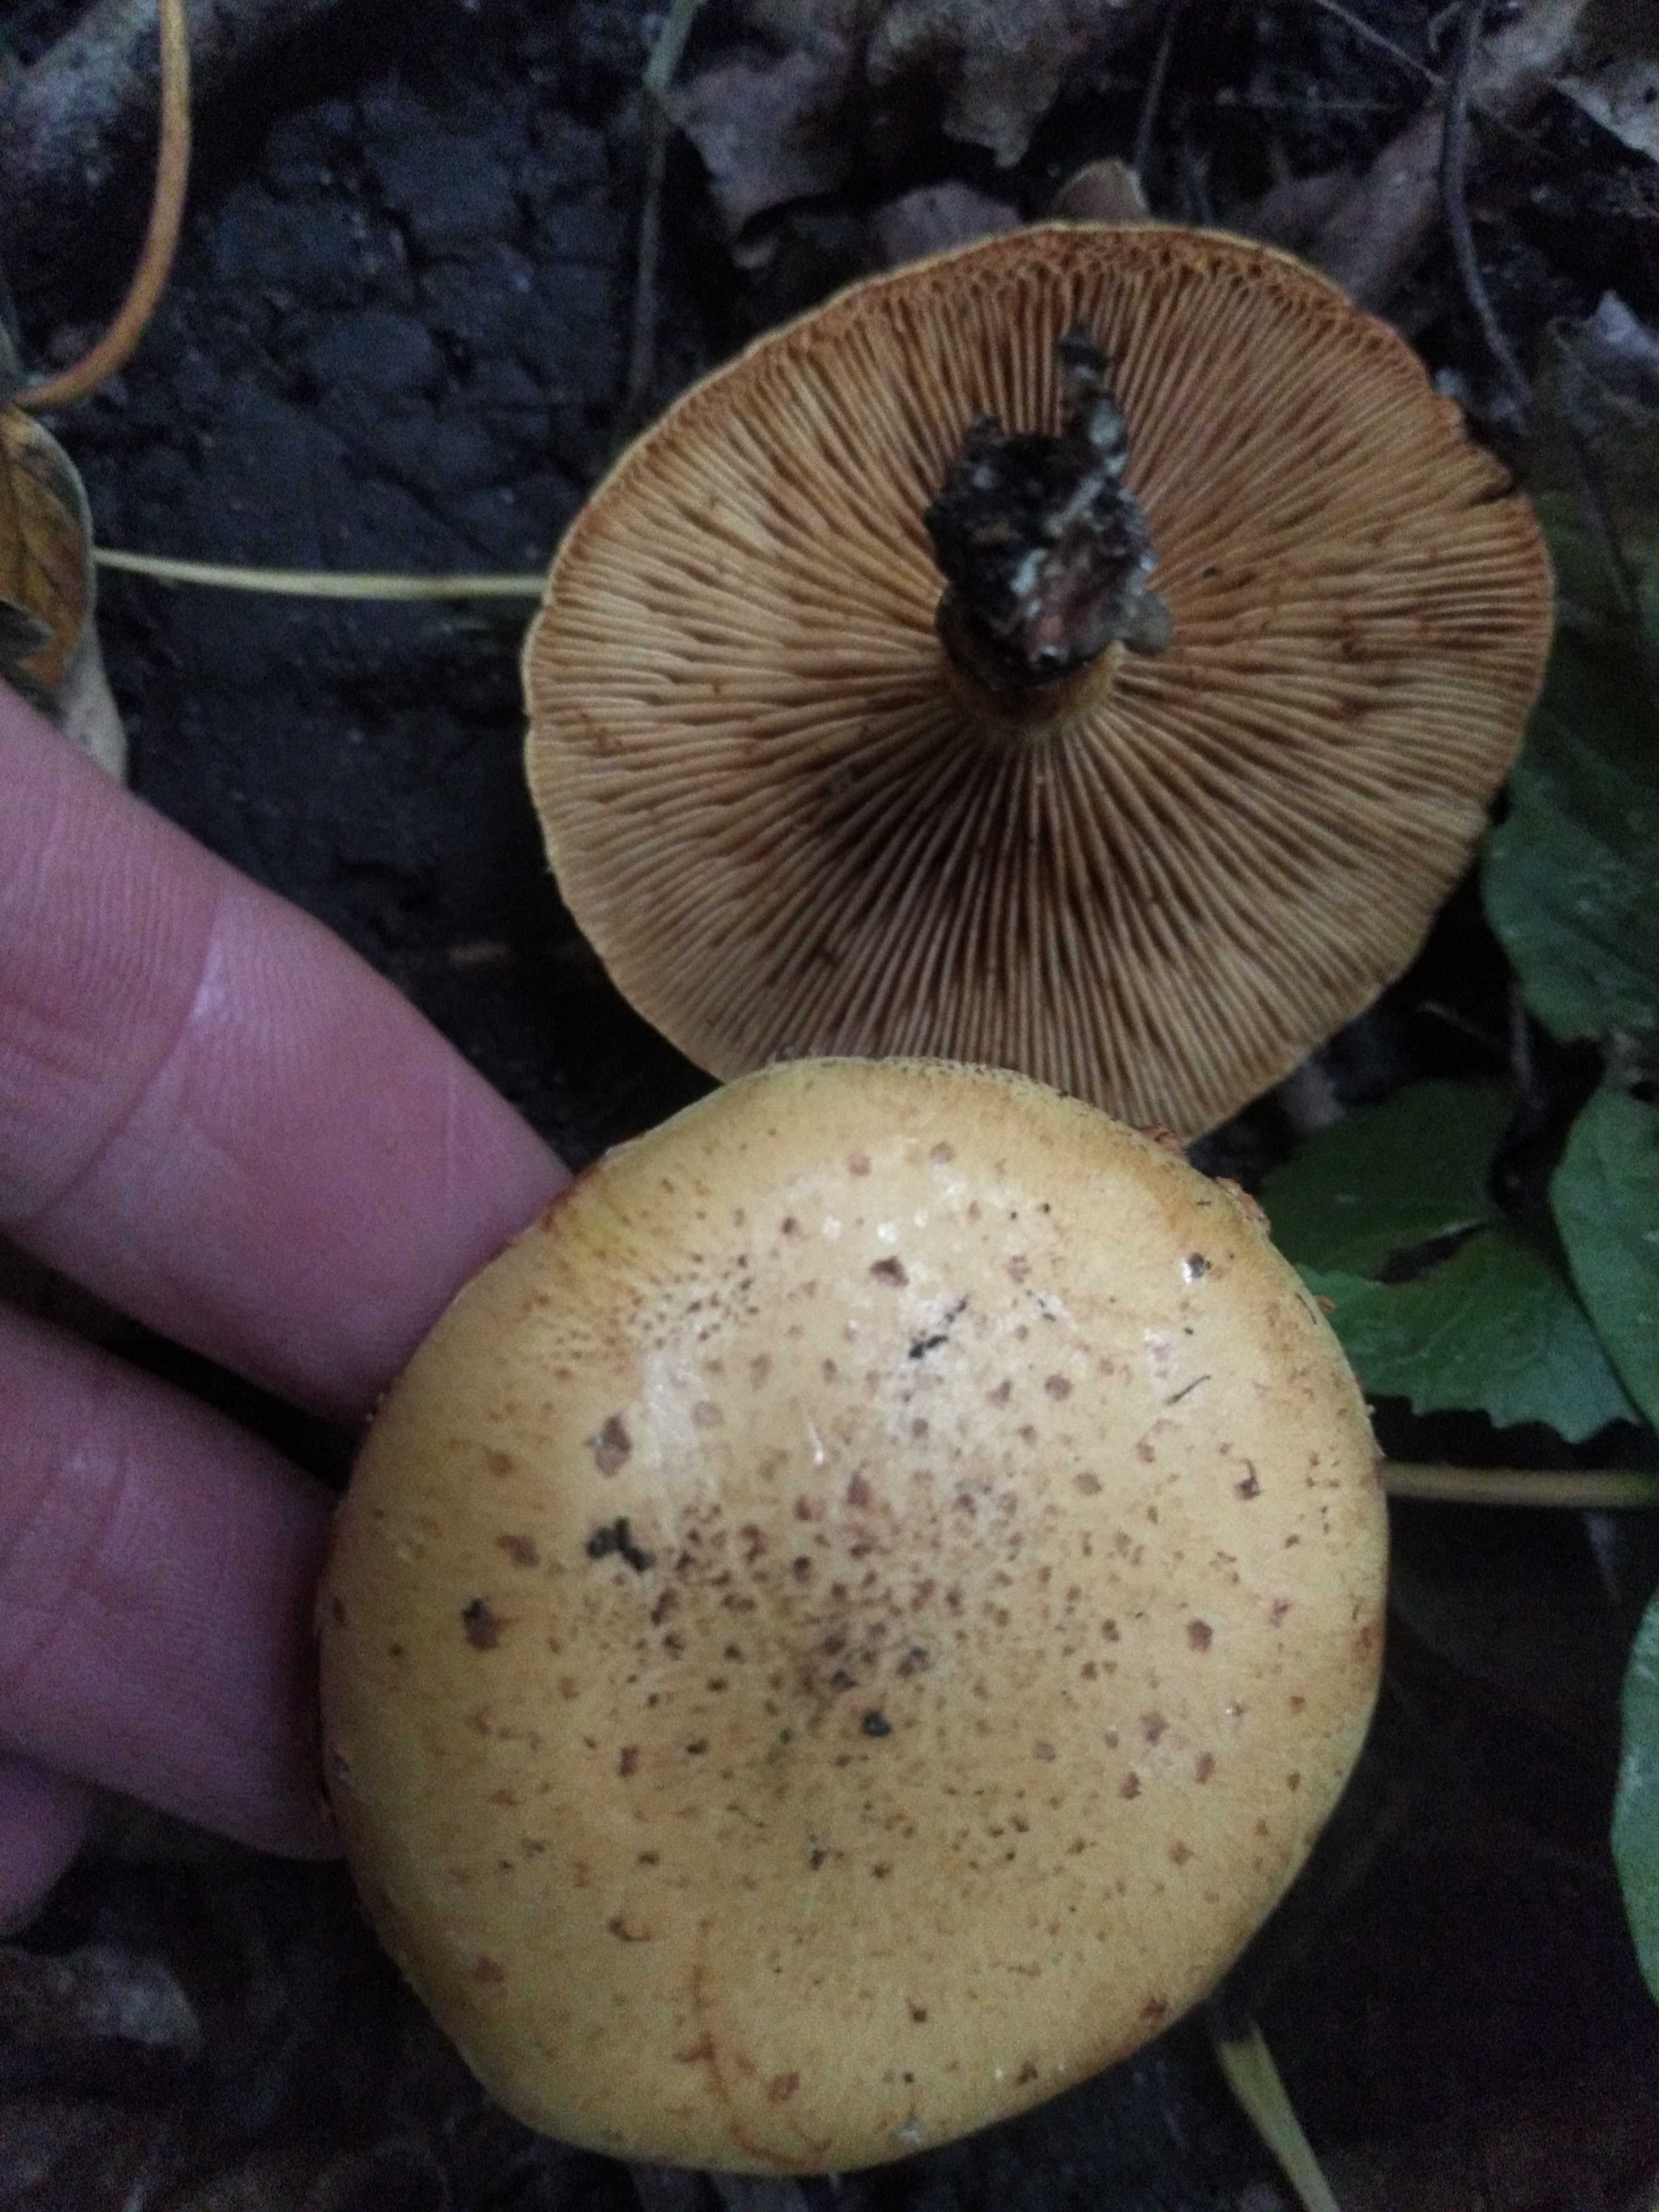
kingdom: Fungi
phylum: Basidiomycota
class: Agaricomycetes
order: Agaricales
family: Strophariaceae
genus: Pholiota
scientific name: Pholiota
